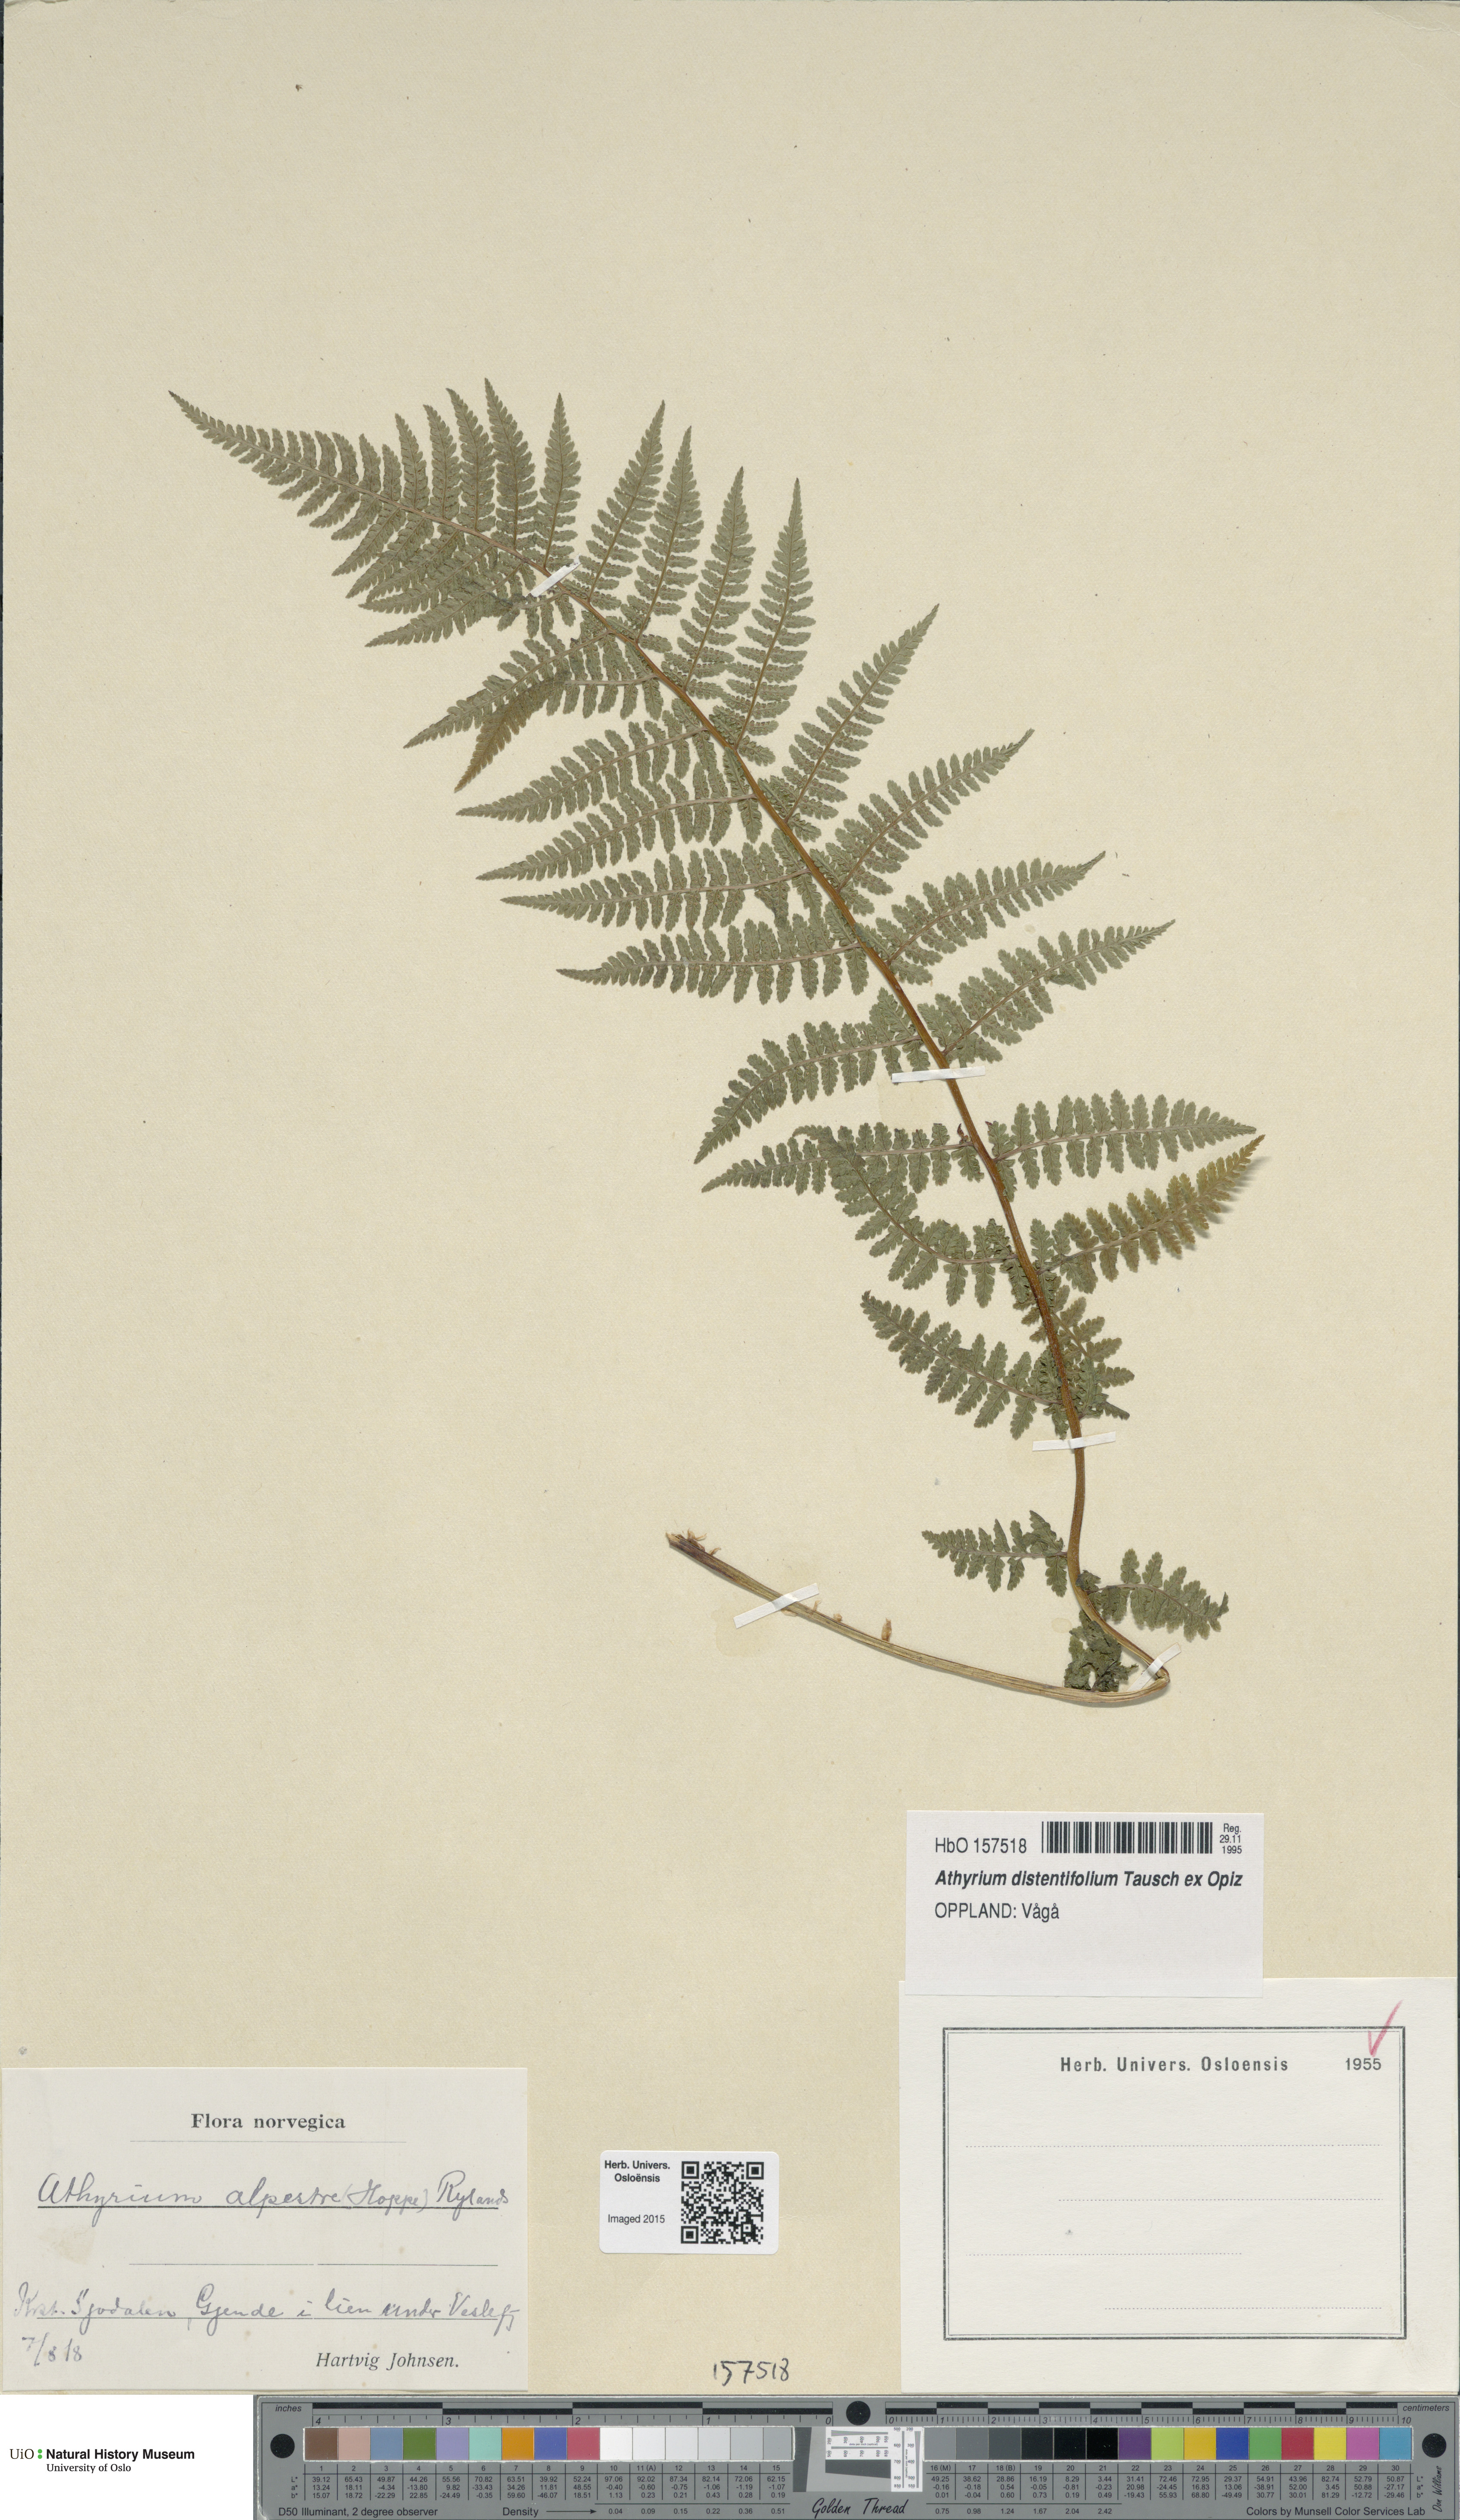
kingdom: Plantae
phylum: Tracheophyta
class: Polypodiopsida
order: Polypodiales
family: Athyriaceae
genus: Pseudathyrium
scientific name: Pseudathyrium alpestre
